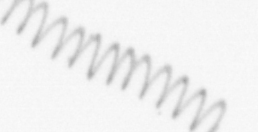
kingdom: Chromista
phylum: Ochrophyta
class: Bacillariophyceae
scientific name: Bacillariophyceae
